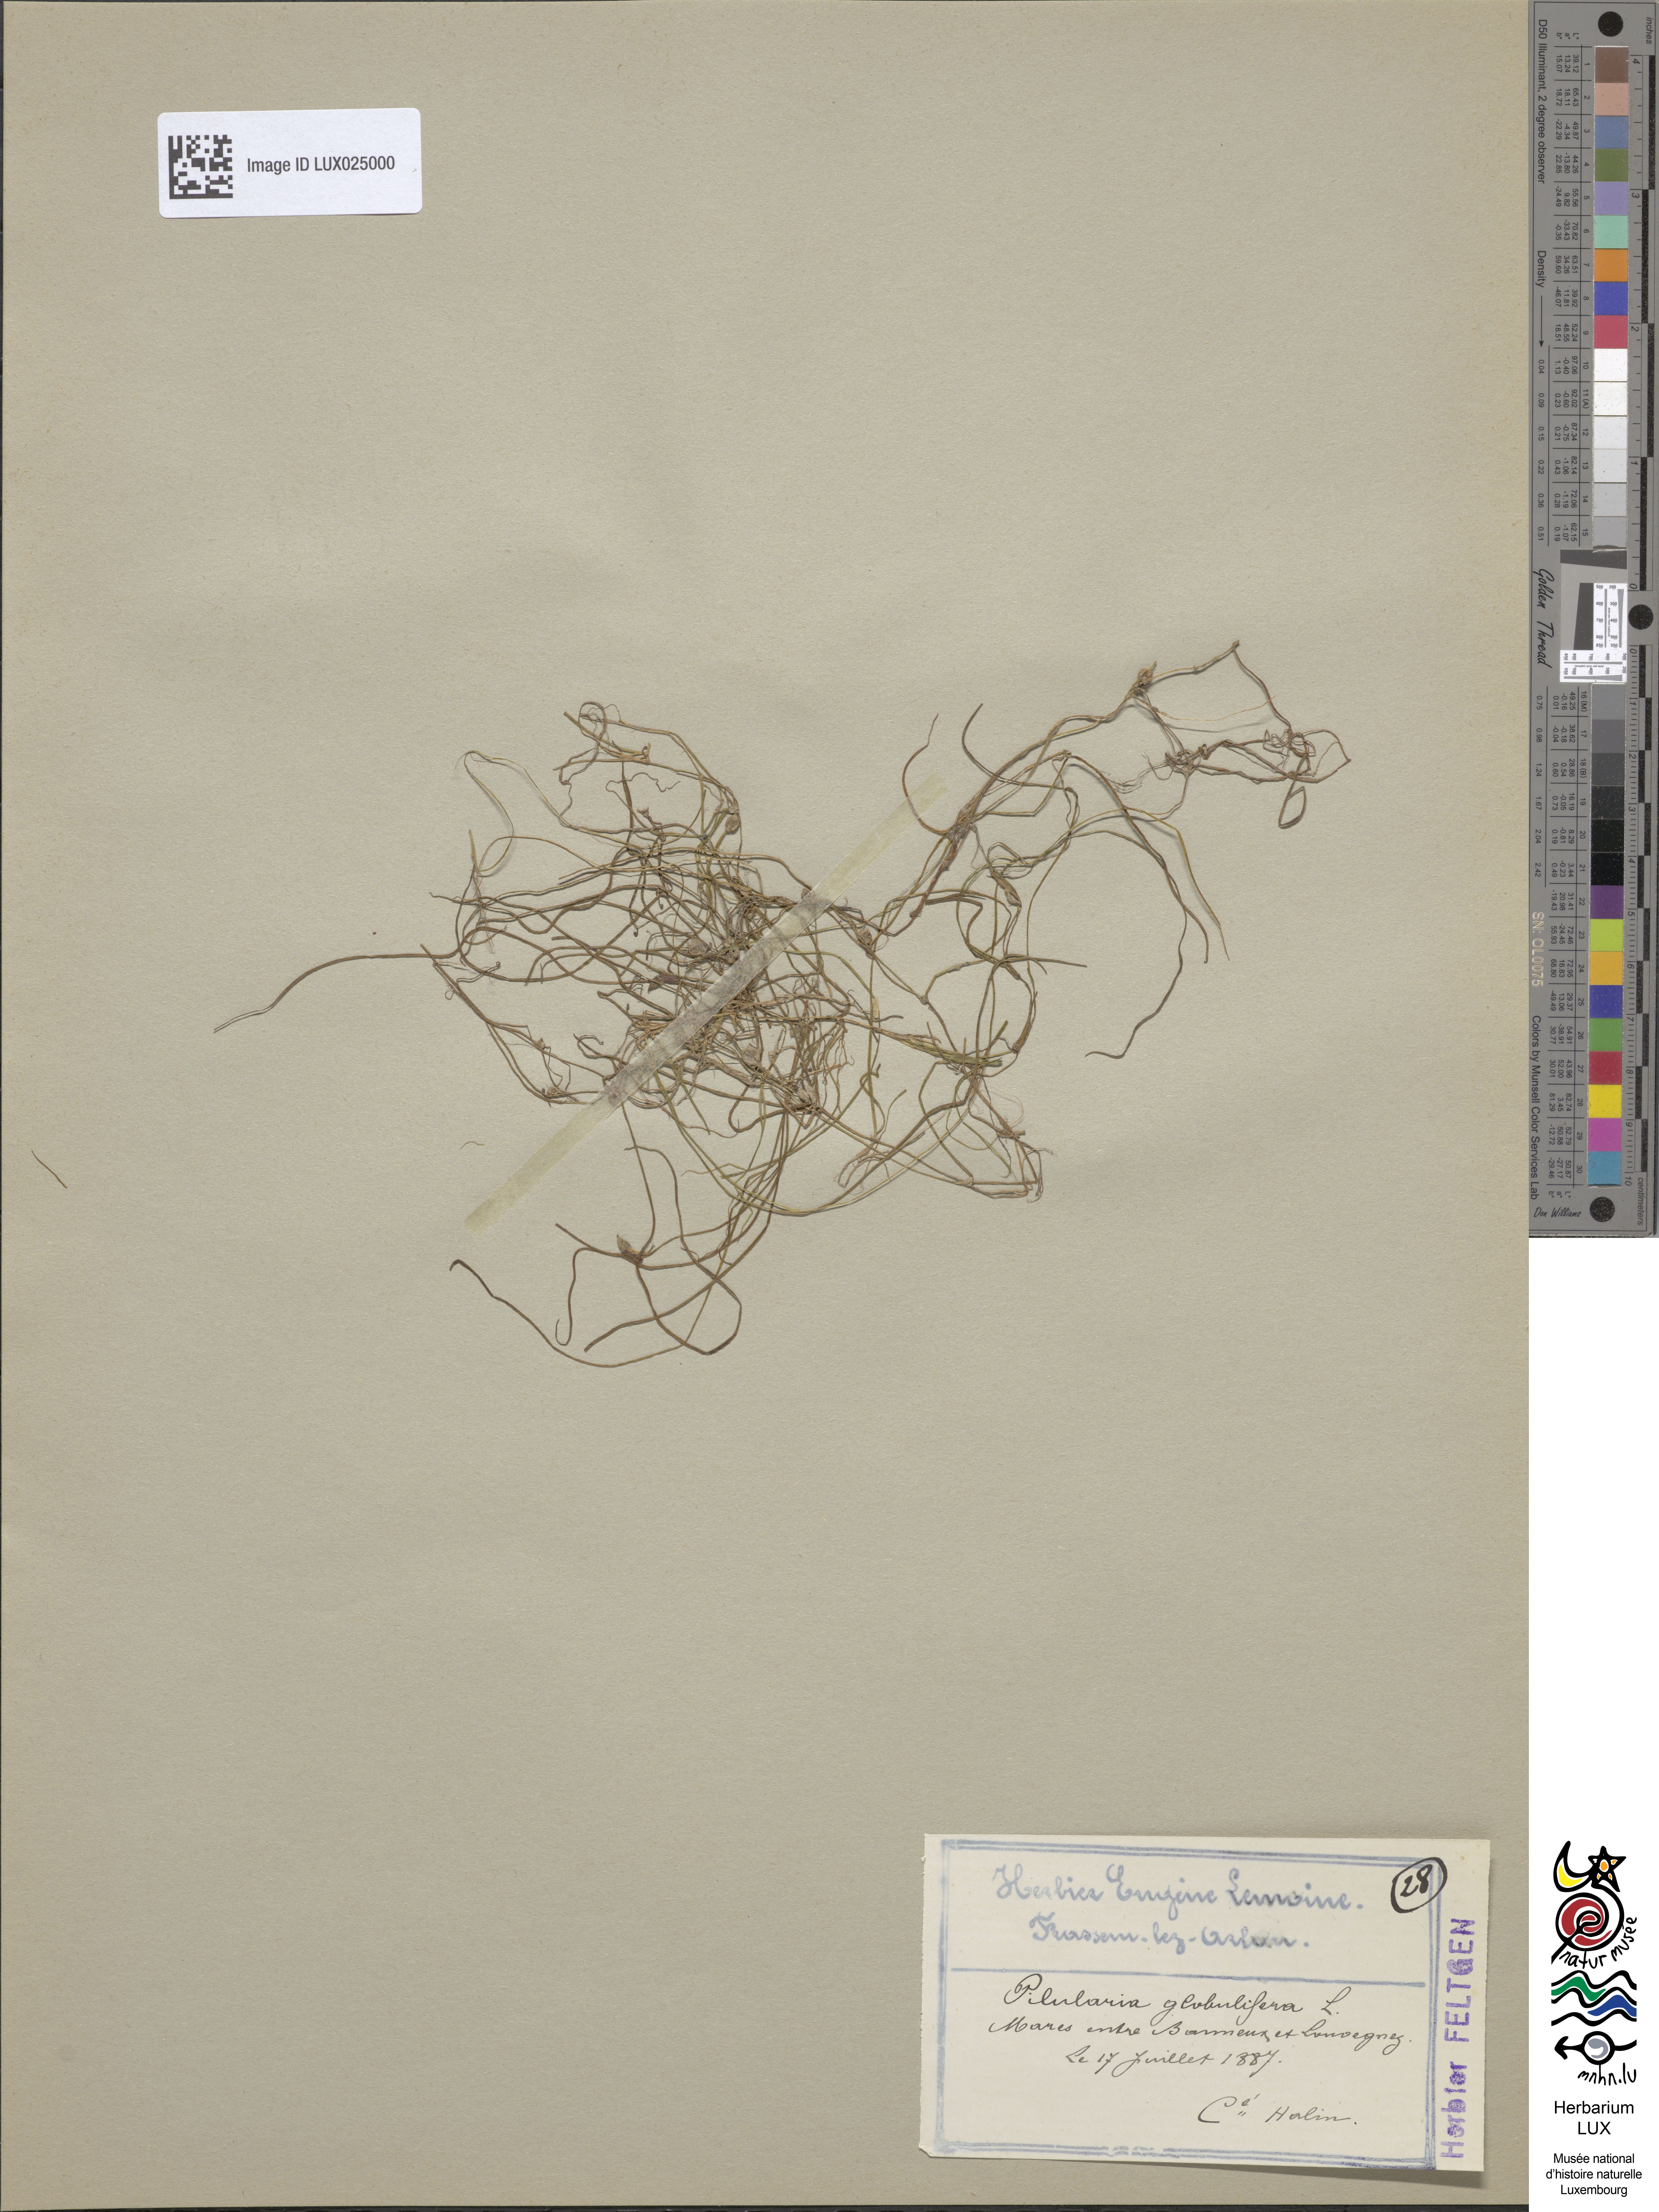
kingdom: Plantae
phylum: Tracheophyta
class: Polypodiopsida
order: Salviniales
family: Marsileaceae
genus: Pilularia
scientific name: Pilularia globulifera
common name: Pillwort
